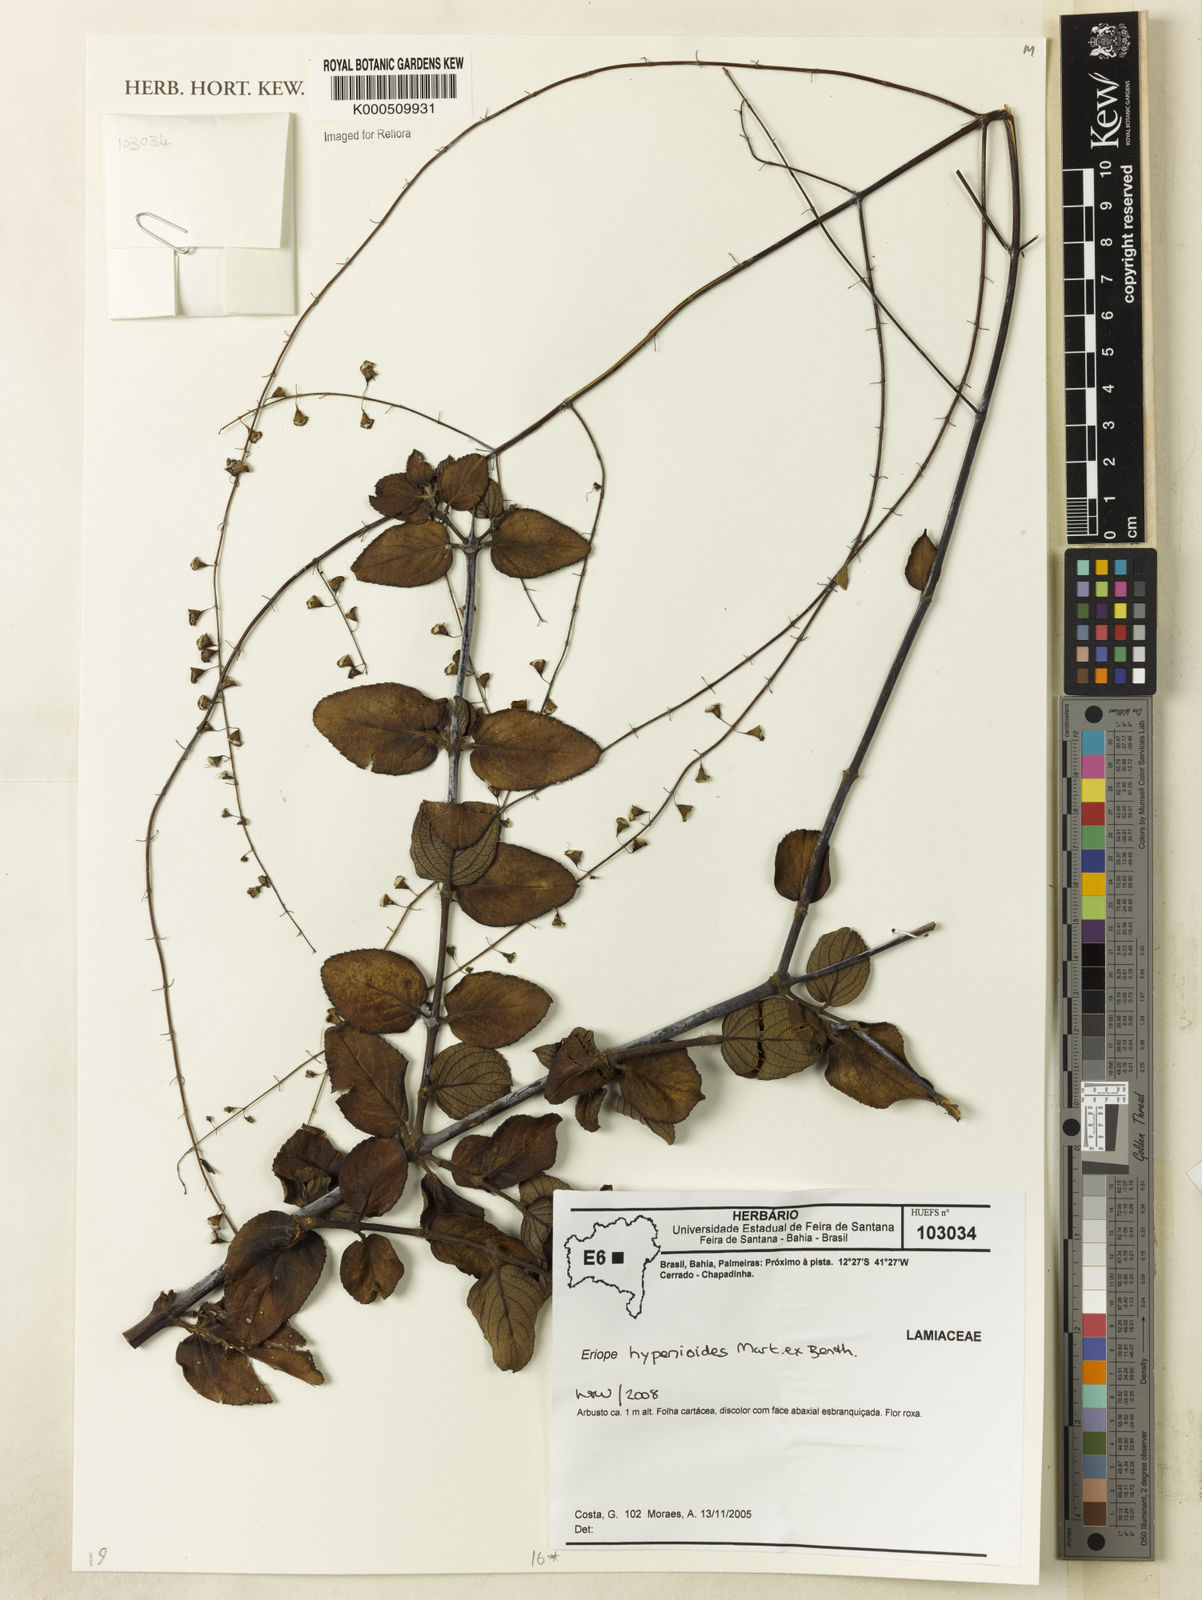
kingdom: Plantae
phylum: Tracheophyta
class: Magnoliopsida
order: Lamiales
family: Lamiaceae
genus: Eriope
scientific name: Eriope hypenioides
